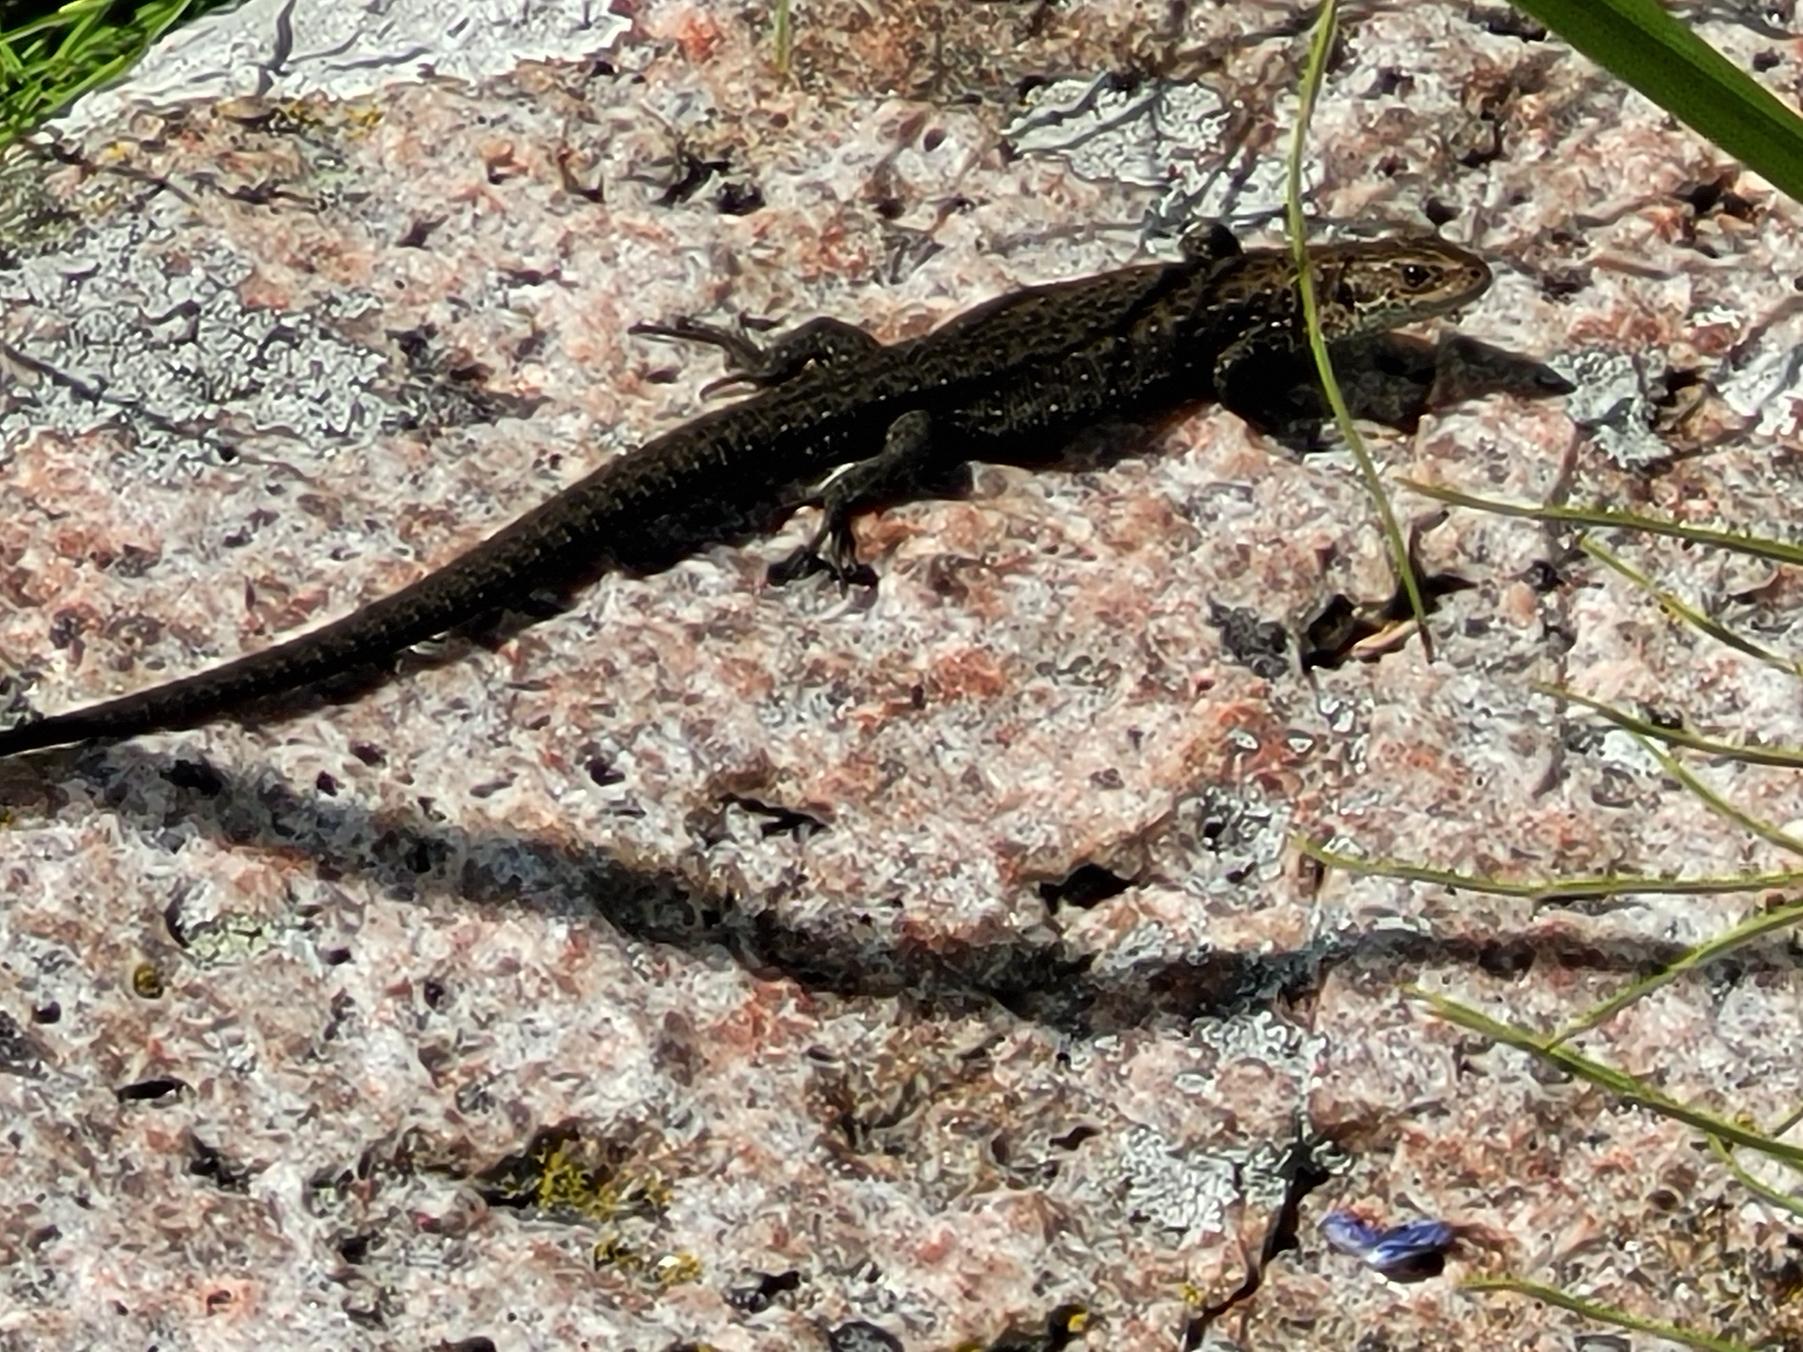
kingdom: Animalia
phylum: Chordata
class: Squamata
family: Lacertidae
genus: Zootoca
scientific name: Zootoca vivipara
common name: Skovfirben
